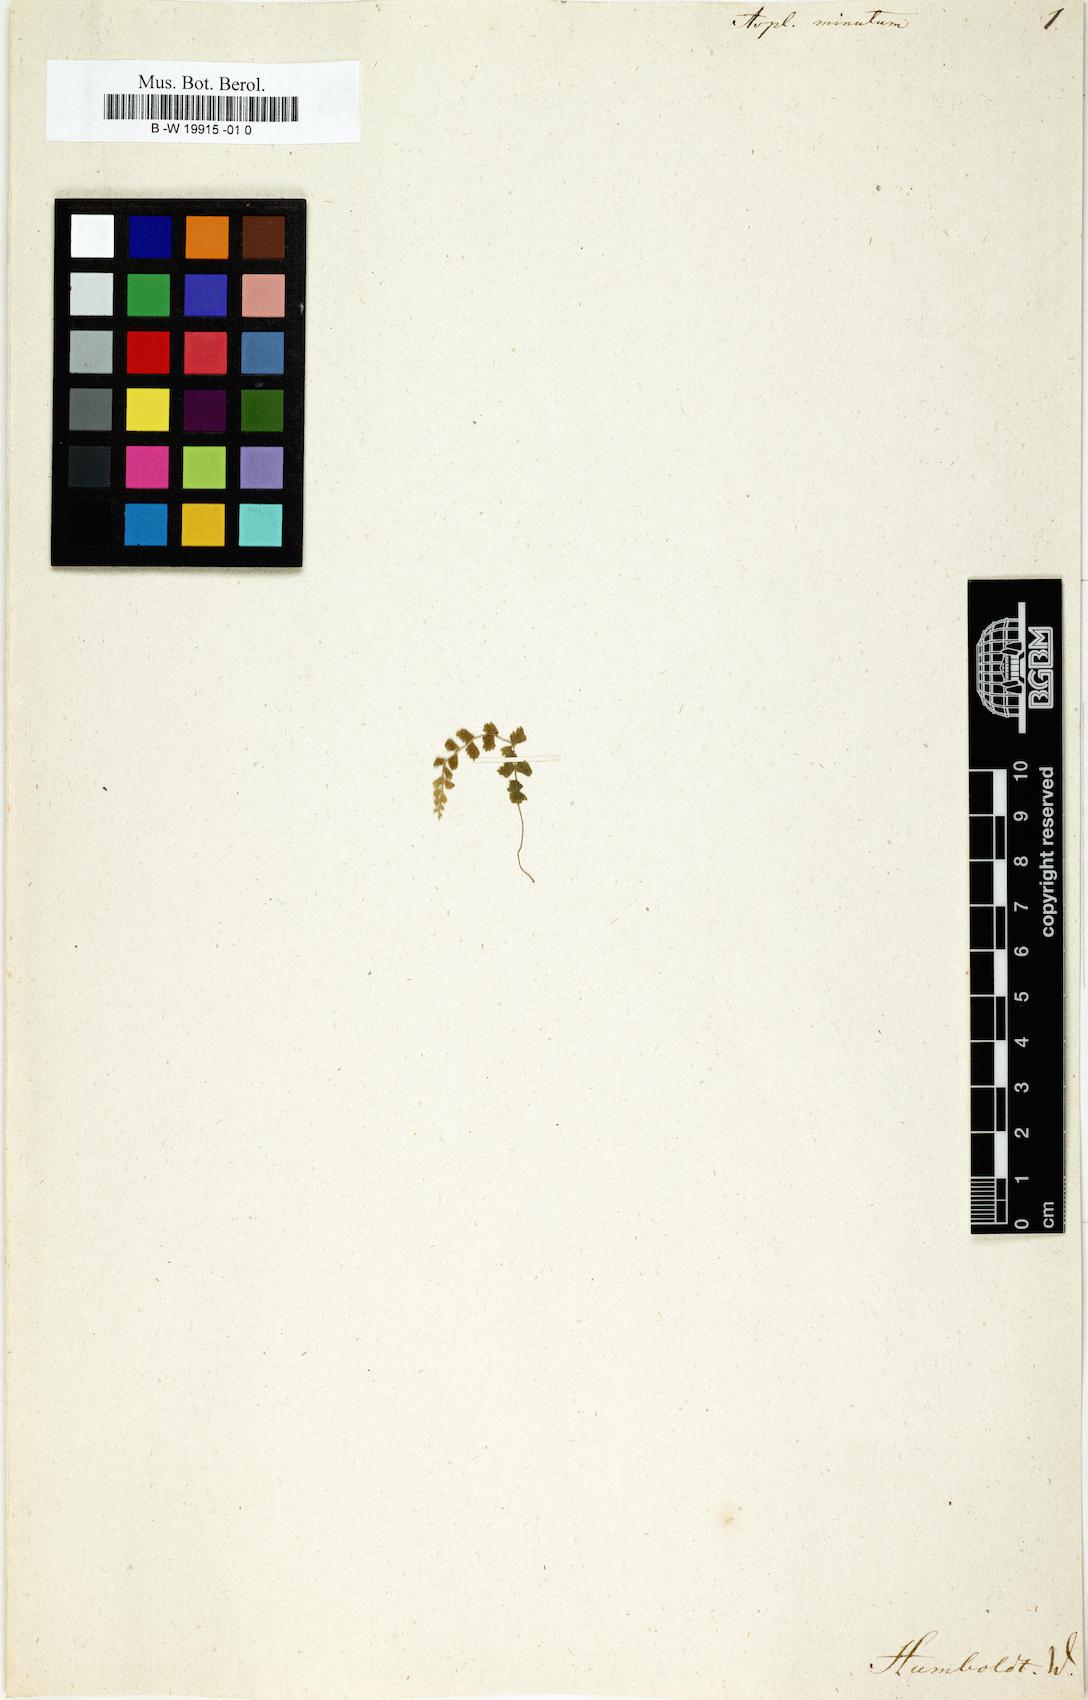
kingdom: Plantae
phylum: Tracheophyta
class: Polypodiopsida
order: Polypodiales
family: Aspleniaceae
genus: Asplenium
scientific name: Asplenium minutum
